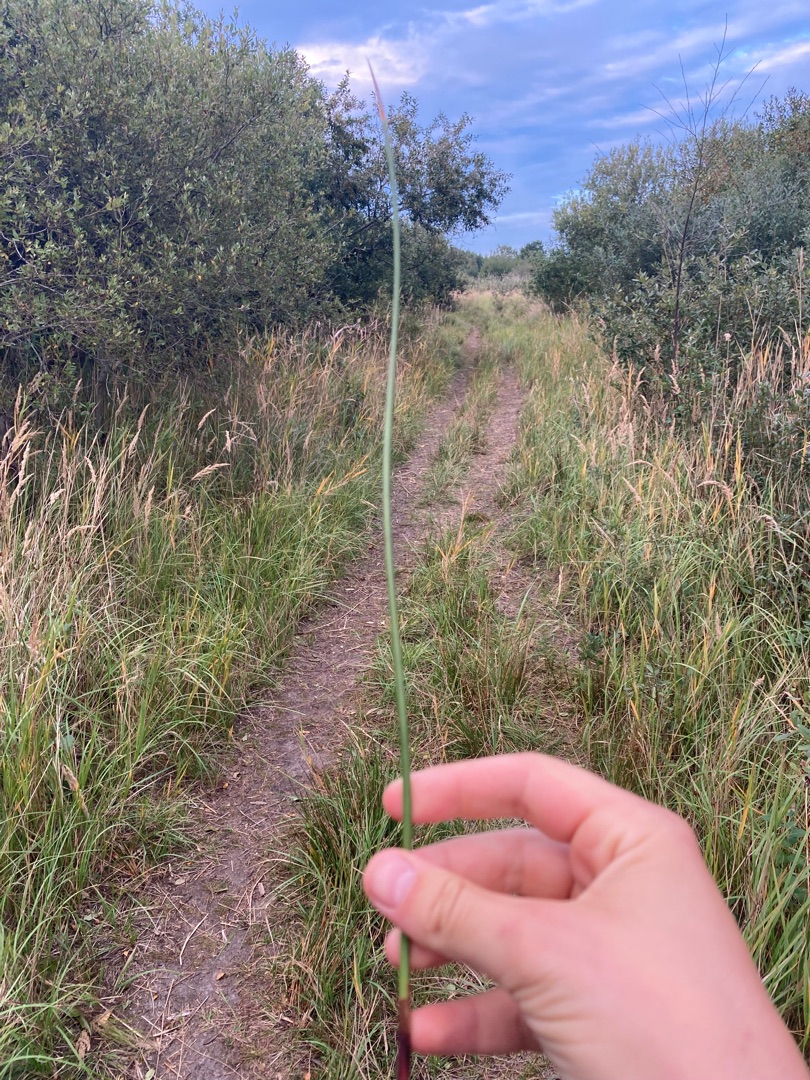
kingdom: Plantae
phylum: Tracheophyta
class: Liliopsida
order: Poales
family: Juncaceae
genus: Juncus
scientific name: Juncus
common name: Sivslægten
